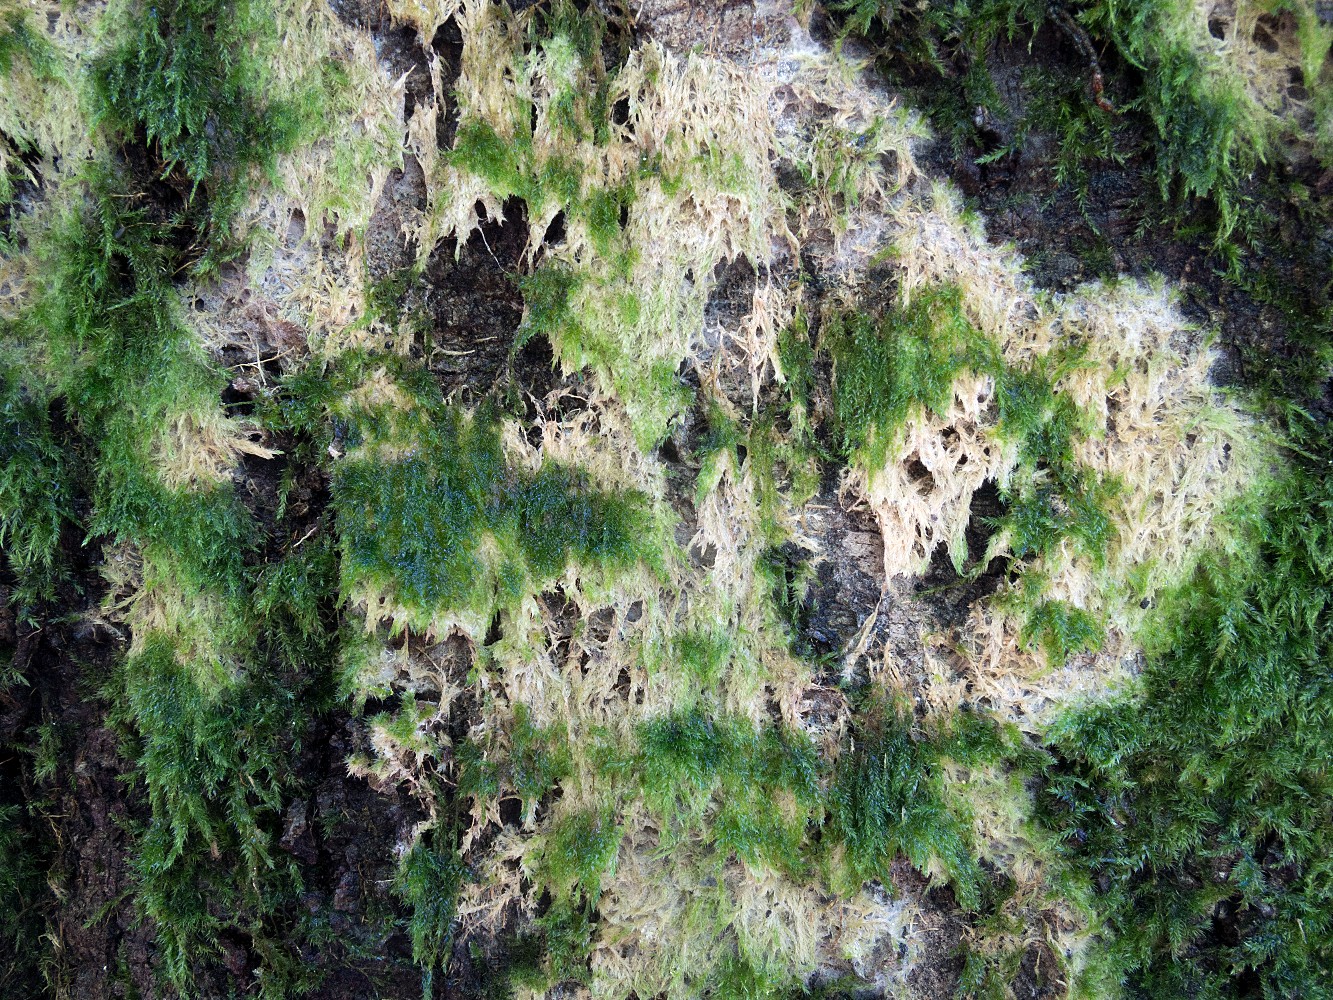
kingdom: Fungi
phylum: Basidiomycota
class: Agaricomycetes
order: Trechisporales
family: Sistotremataceae
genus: Trechispora
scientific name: Trechispora
